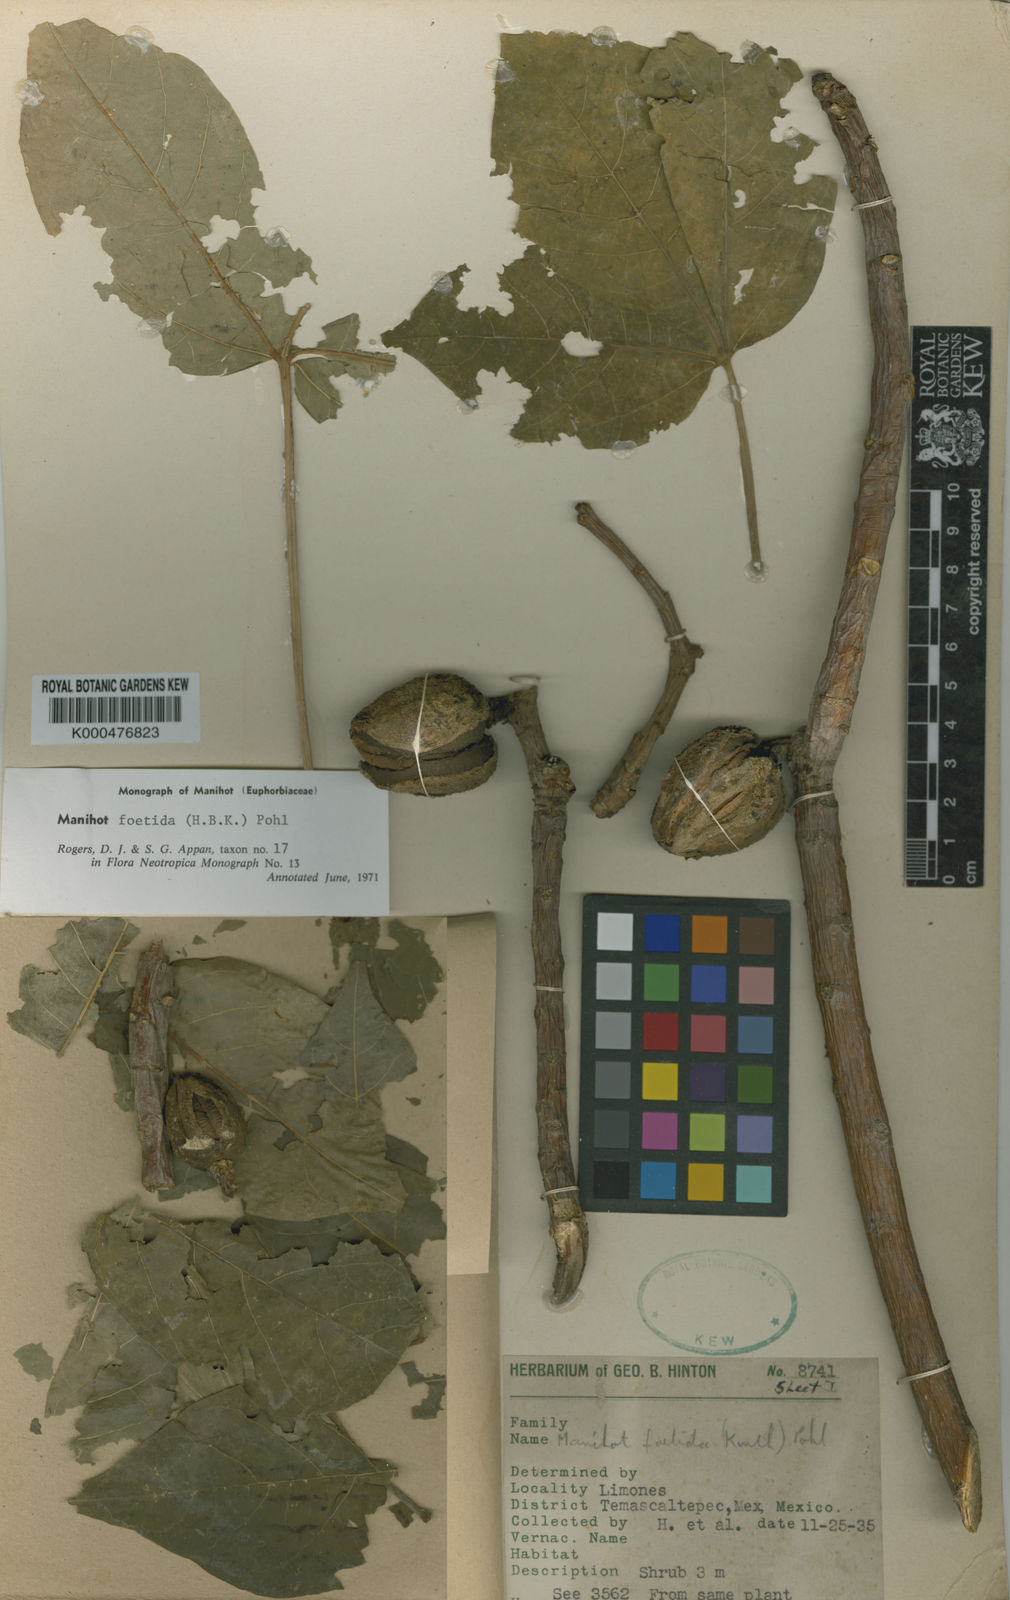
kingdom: Plantae
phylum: Tracheophyta
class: Magnoliopsida
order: Malpighiales
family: Euphorbiaceae
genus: Manihot
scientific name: Manihot foetida
